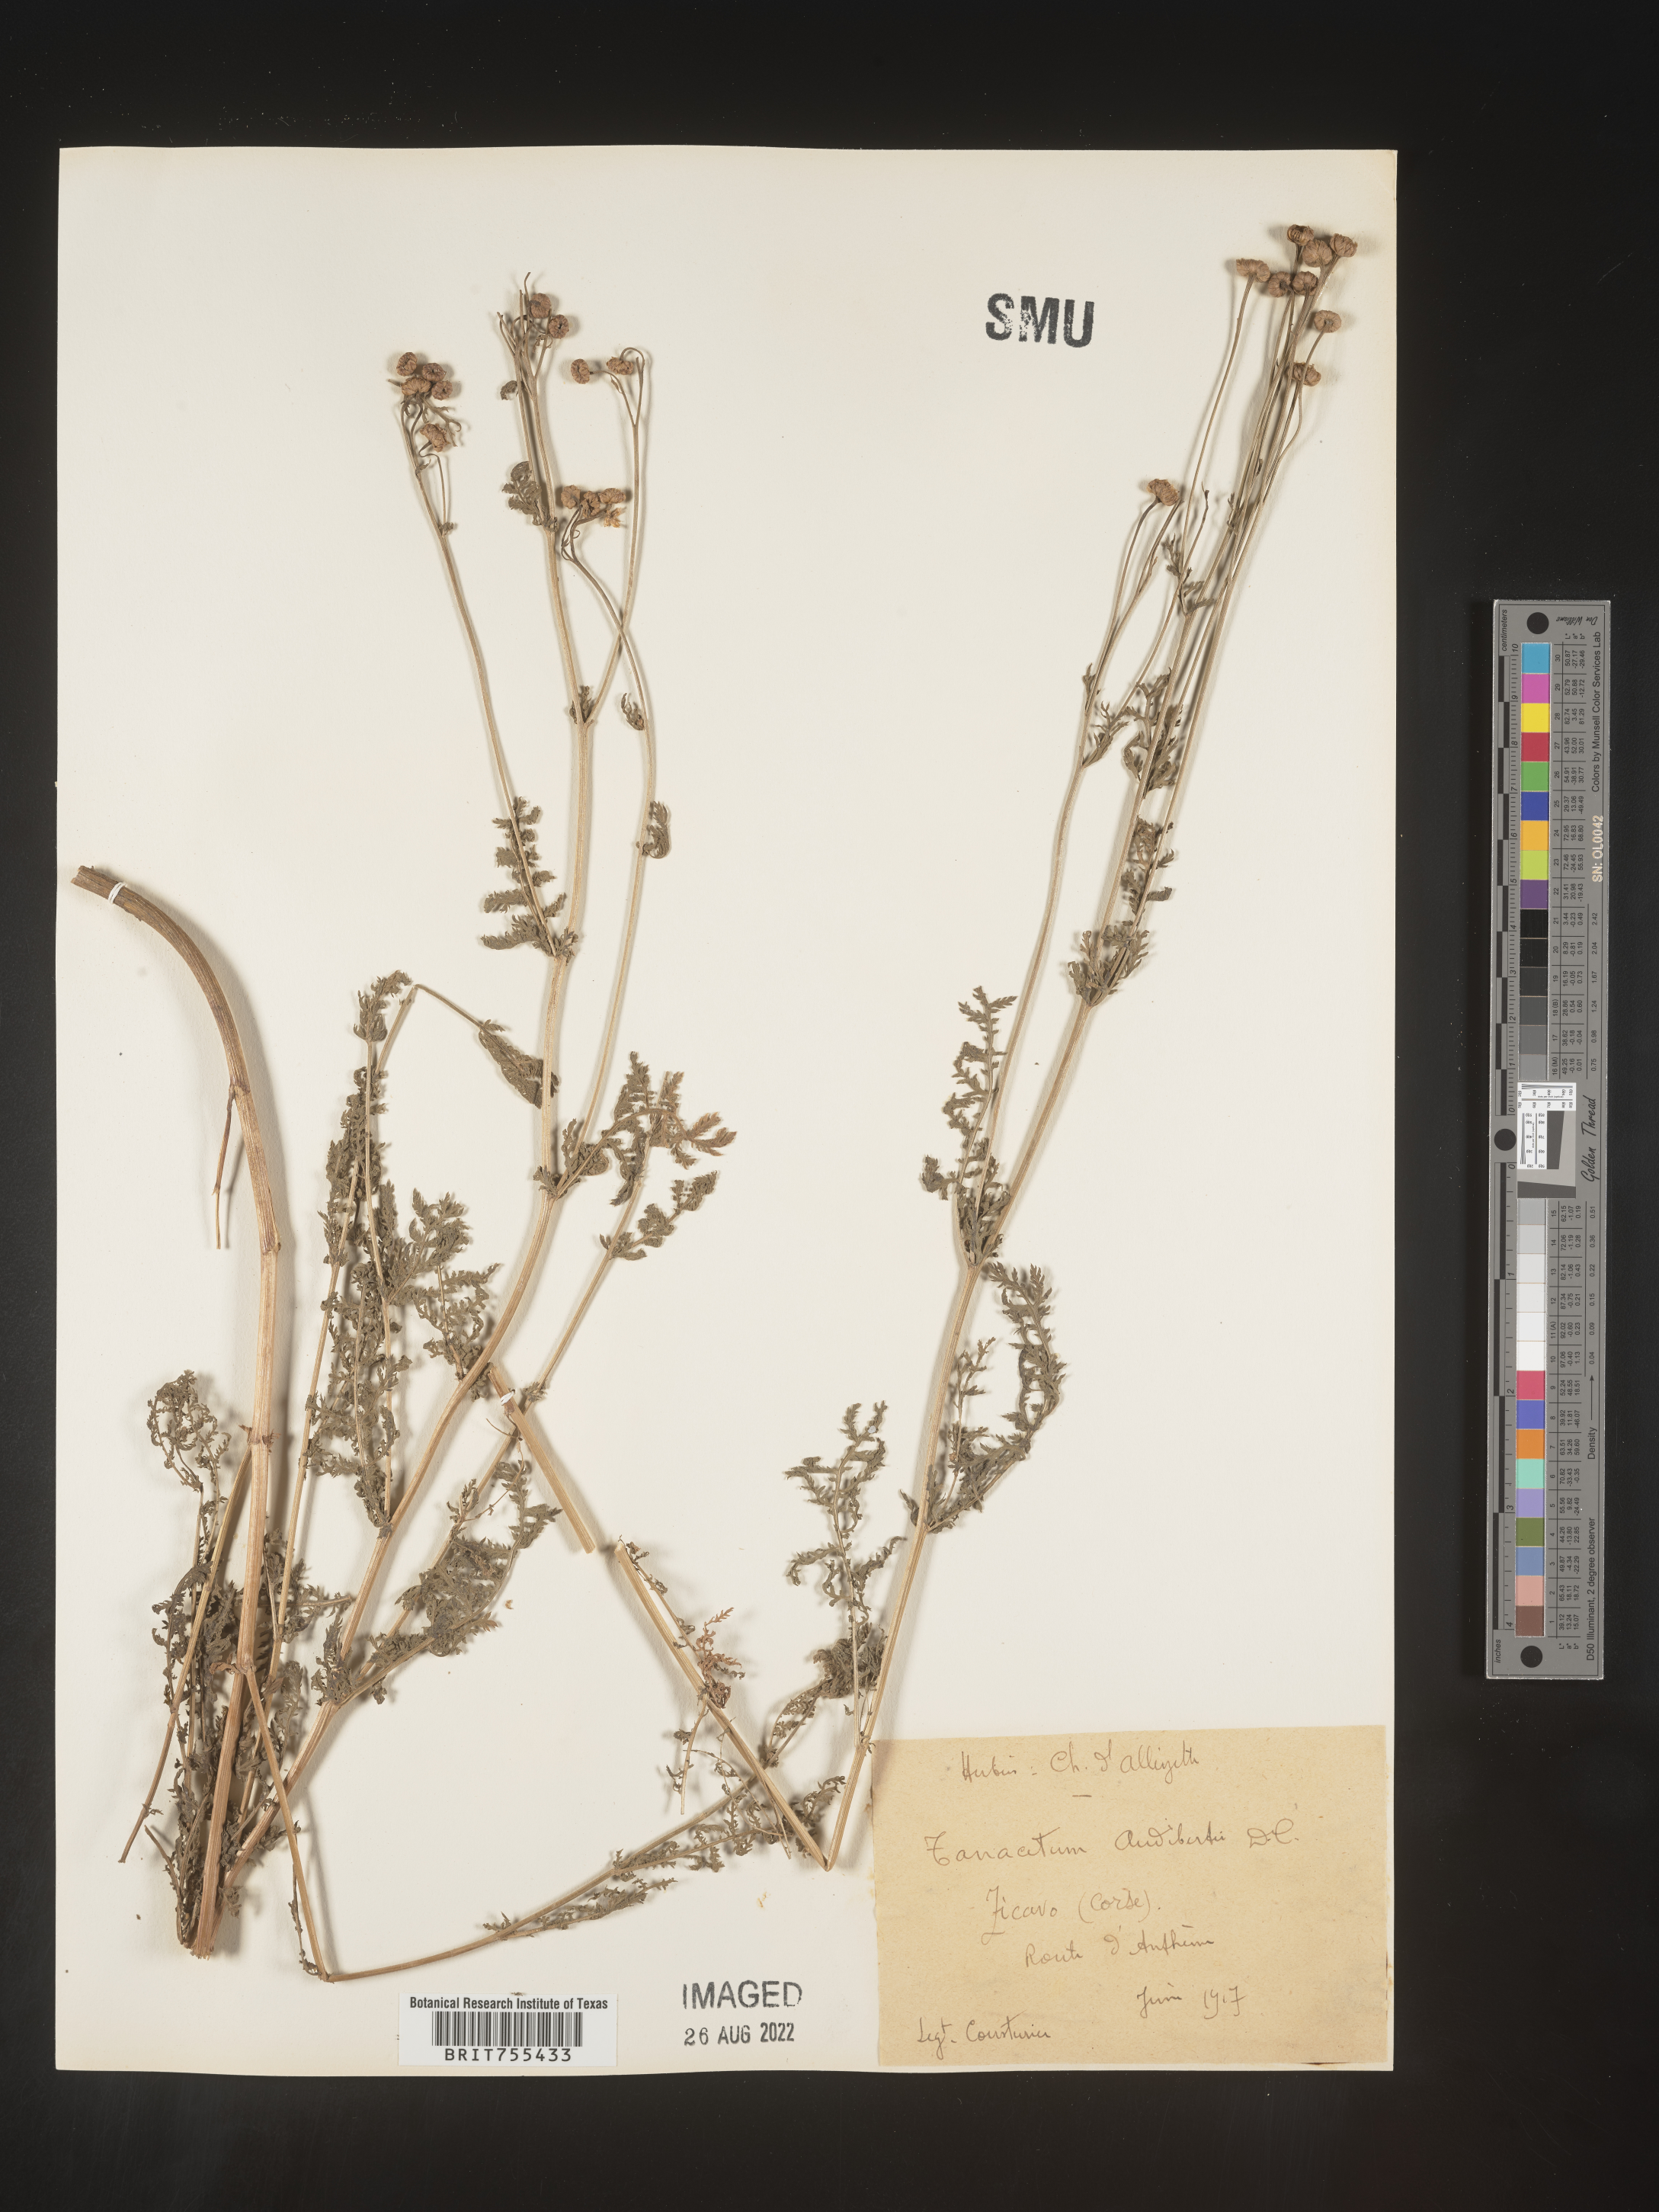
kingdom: Plantae
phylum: Tracheophyta
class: Magnoliopsida
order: Asterales
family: Asteraceae
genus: Tanacetum
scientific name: Tanacetum
